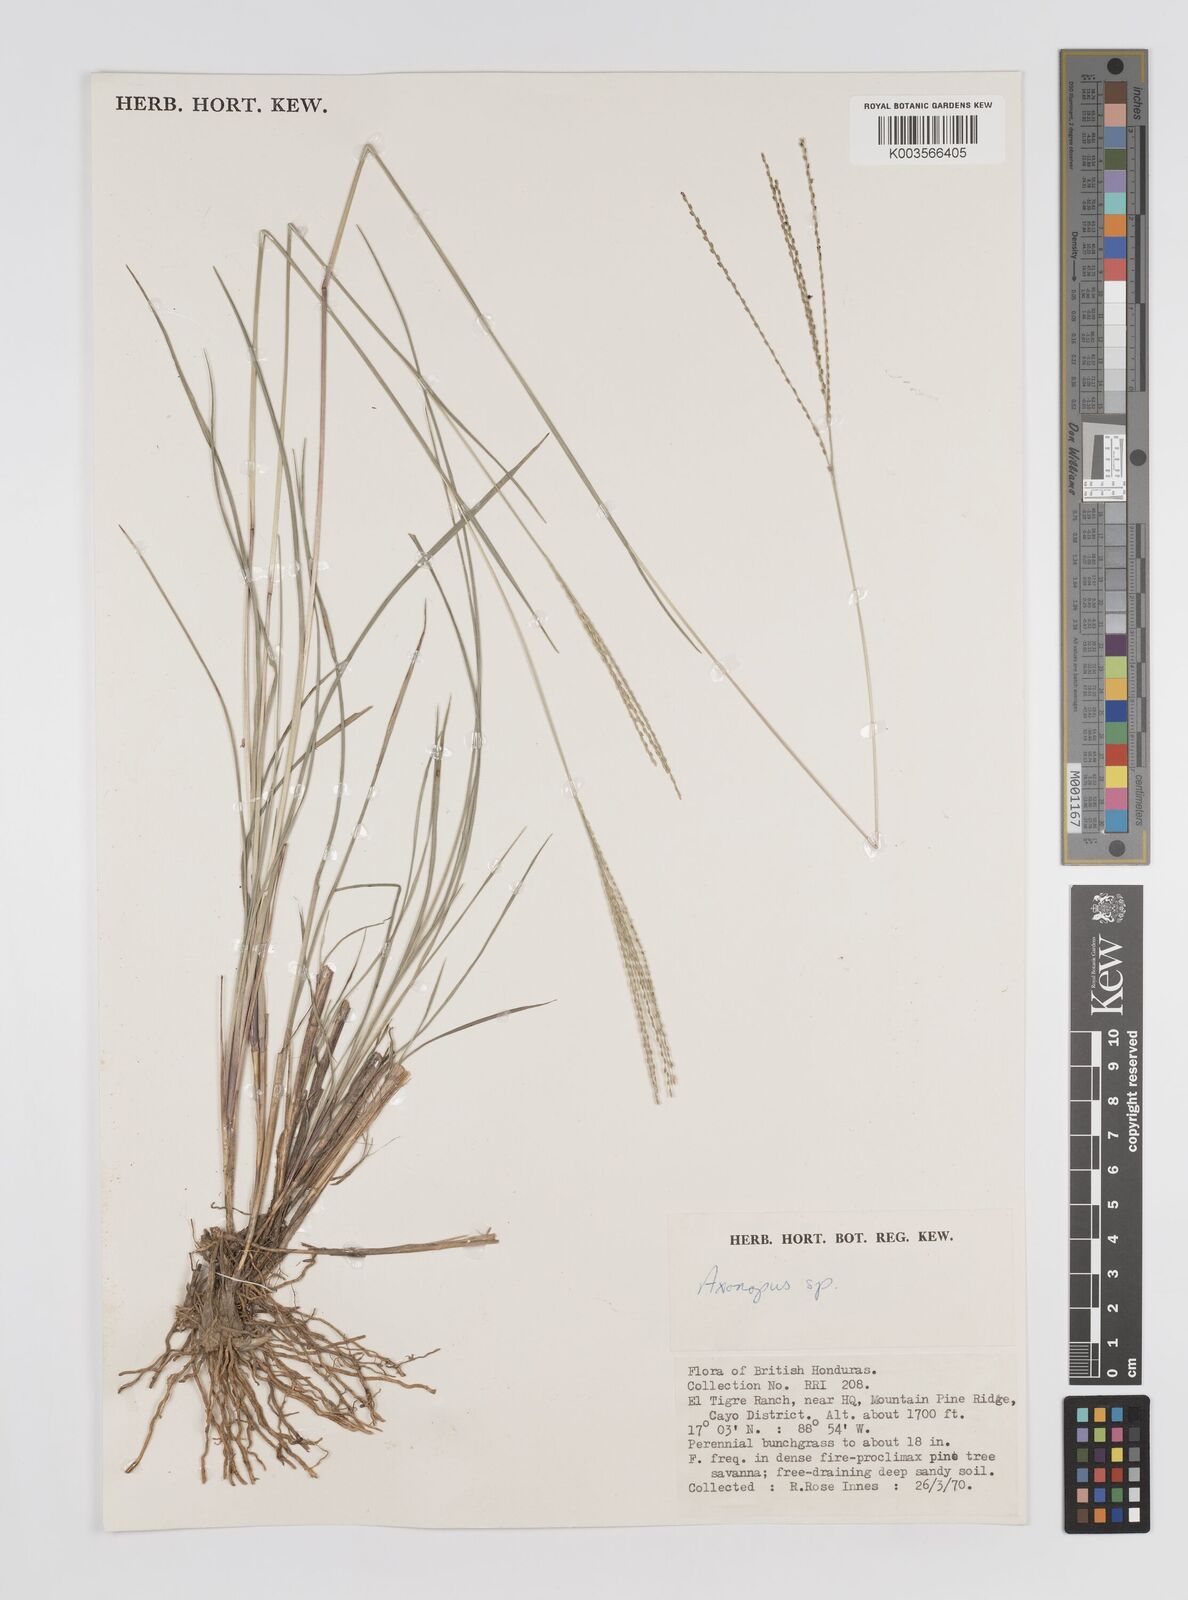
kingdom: Plantae
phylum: Tracheophyta
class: Liliopsida
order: Poales
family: Poaceae
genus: Axonopus
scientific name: Axonopus
